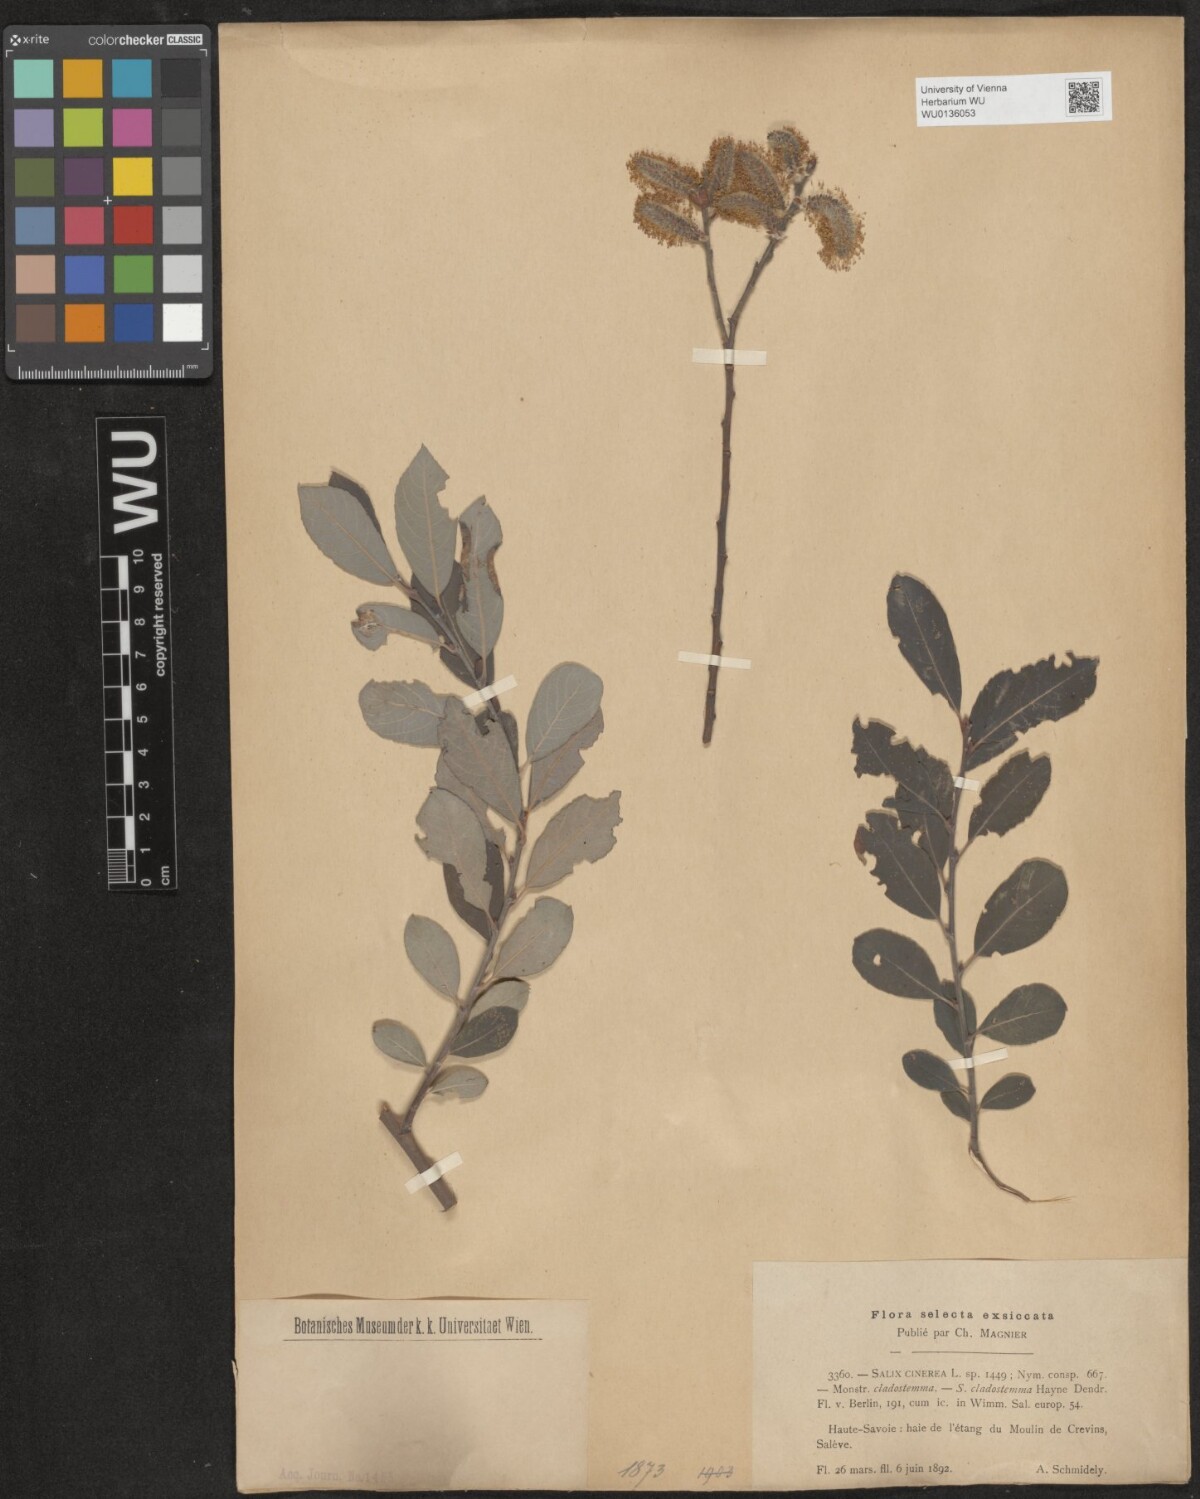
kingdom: Plantae
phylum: Tracheophyta
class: Magnoliopsida
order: Malpighiales
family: Salicaceae
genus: Salix
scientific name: Salix cinerea
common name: Common sallow
